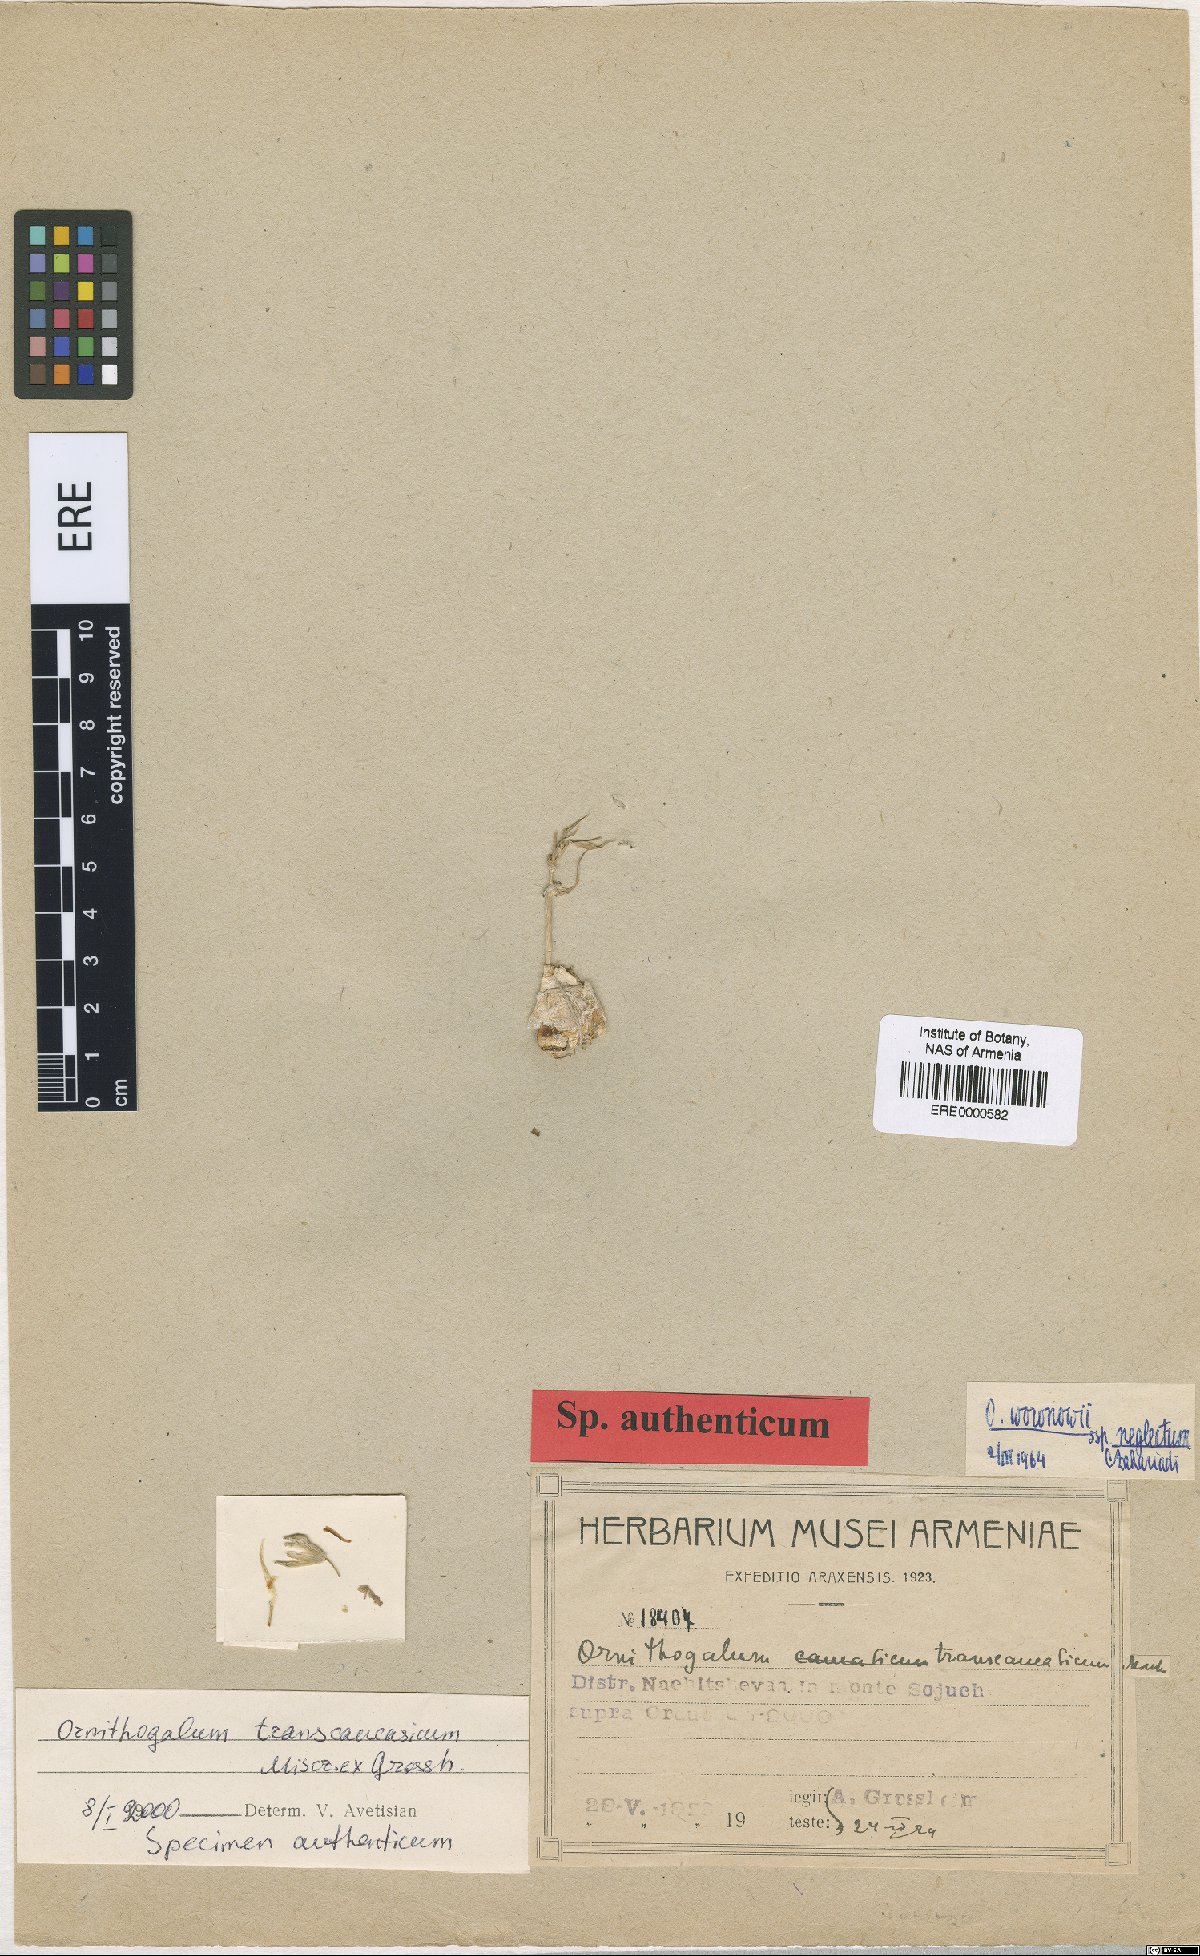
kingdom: Plantae
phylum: Tracheophyta
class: Liliopsida
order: Asparagales
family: Asparagaceae
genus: Ornithogalum
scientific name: Ornithogalum transcaucasicum
